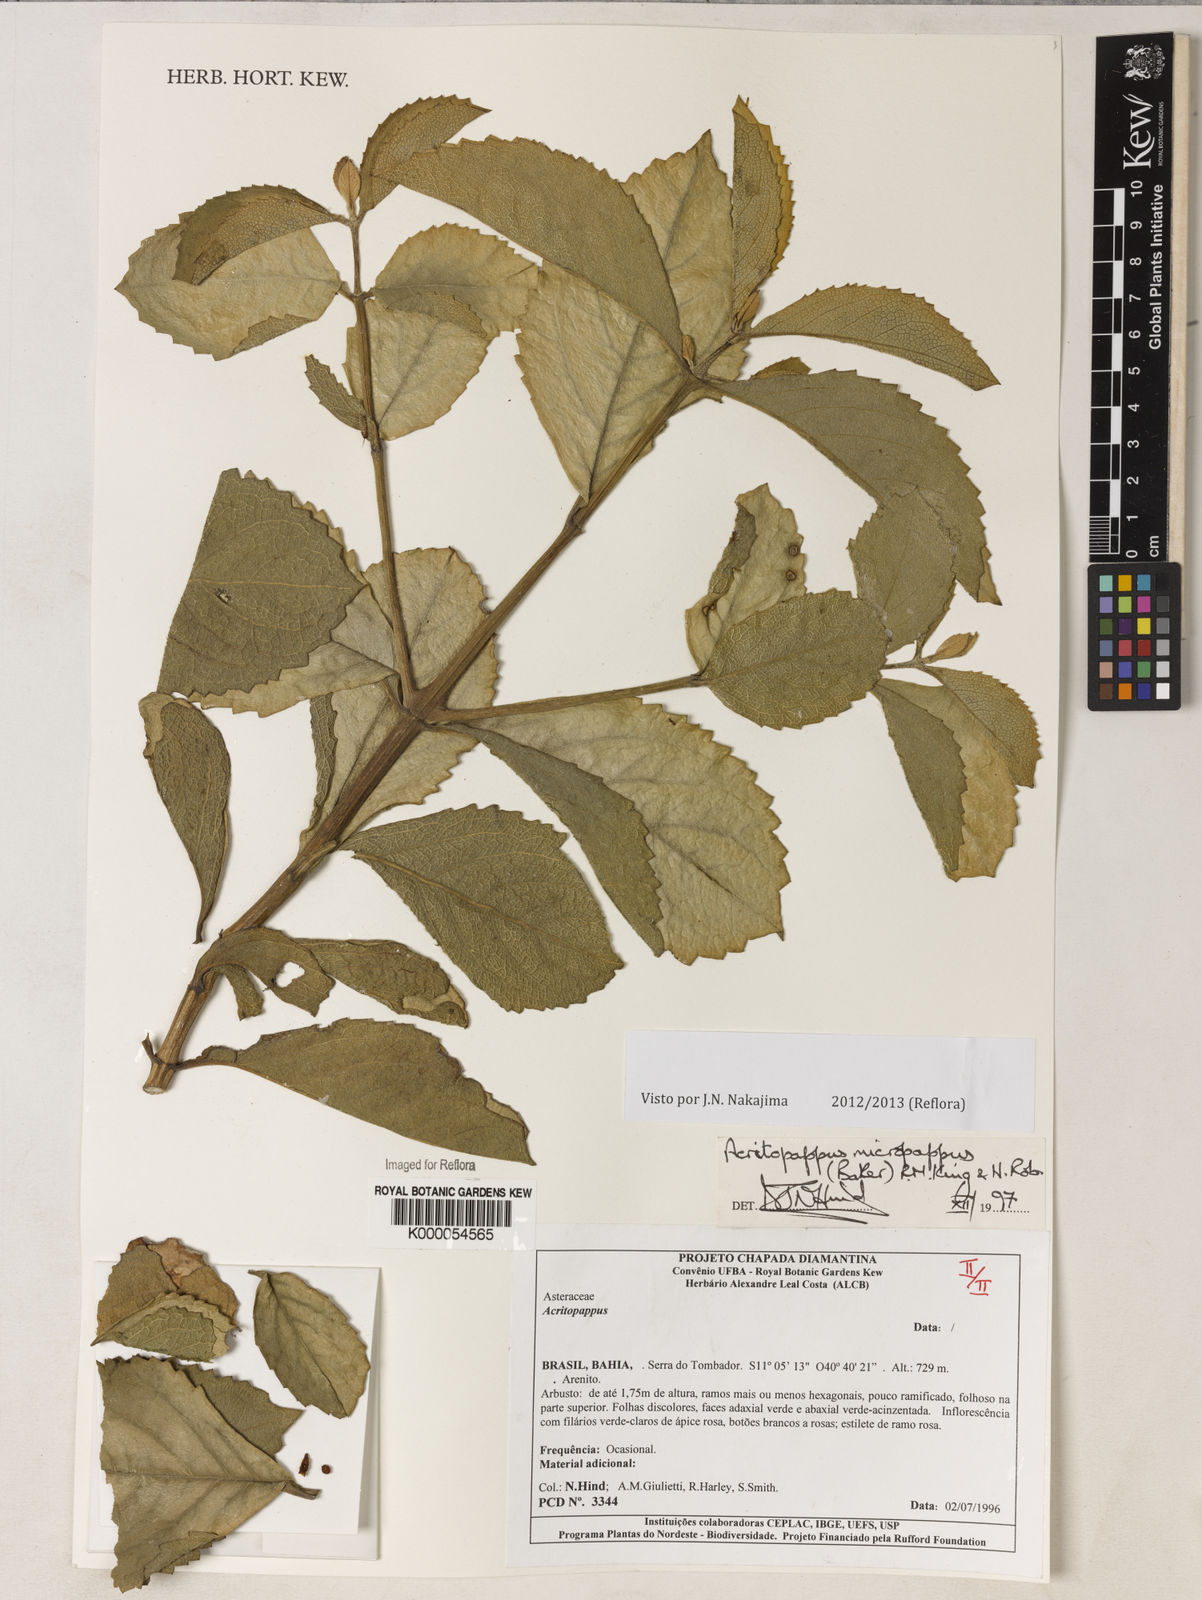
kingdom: Plantae
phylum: Tracheophyta
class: Magnoliopsida
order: Asterales
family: Asteraceae
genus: Acritopappus
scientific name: Acritopappus micropappus
